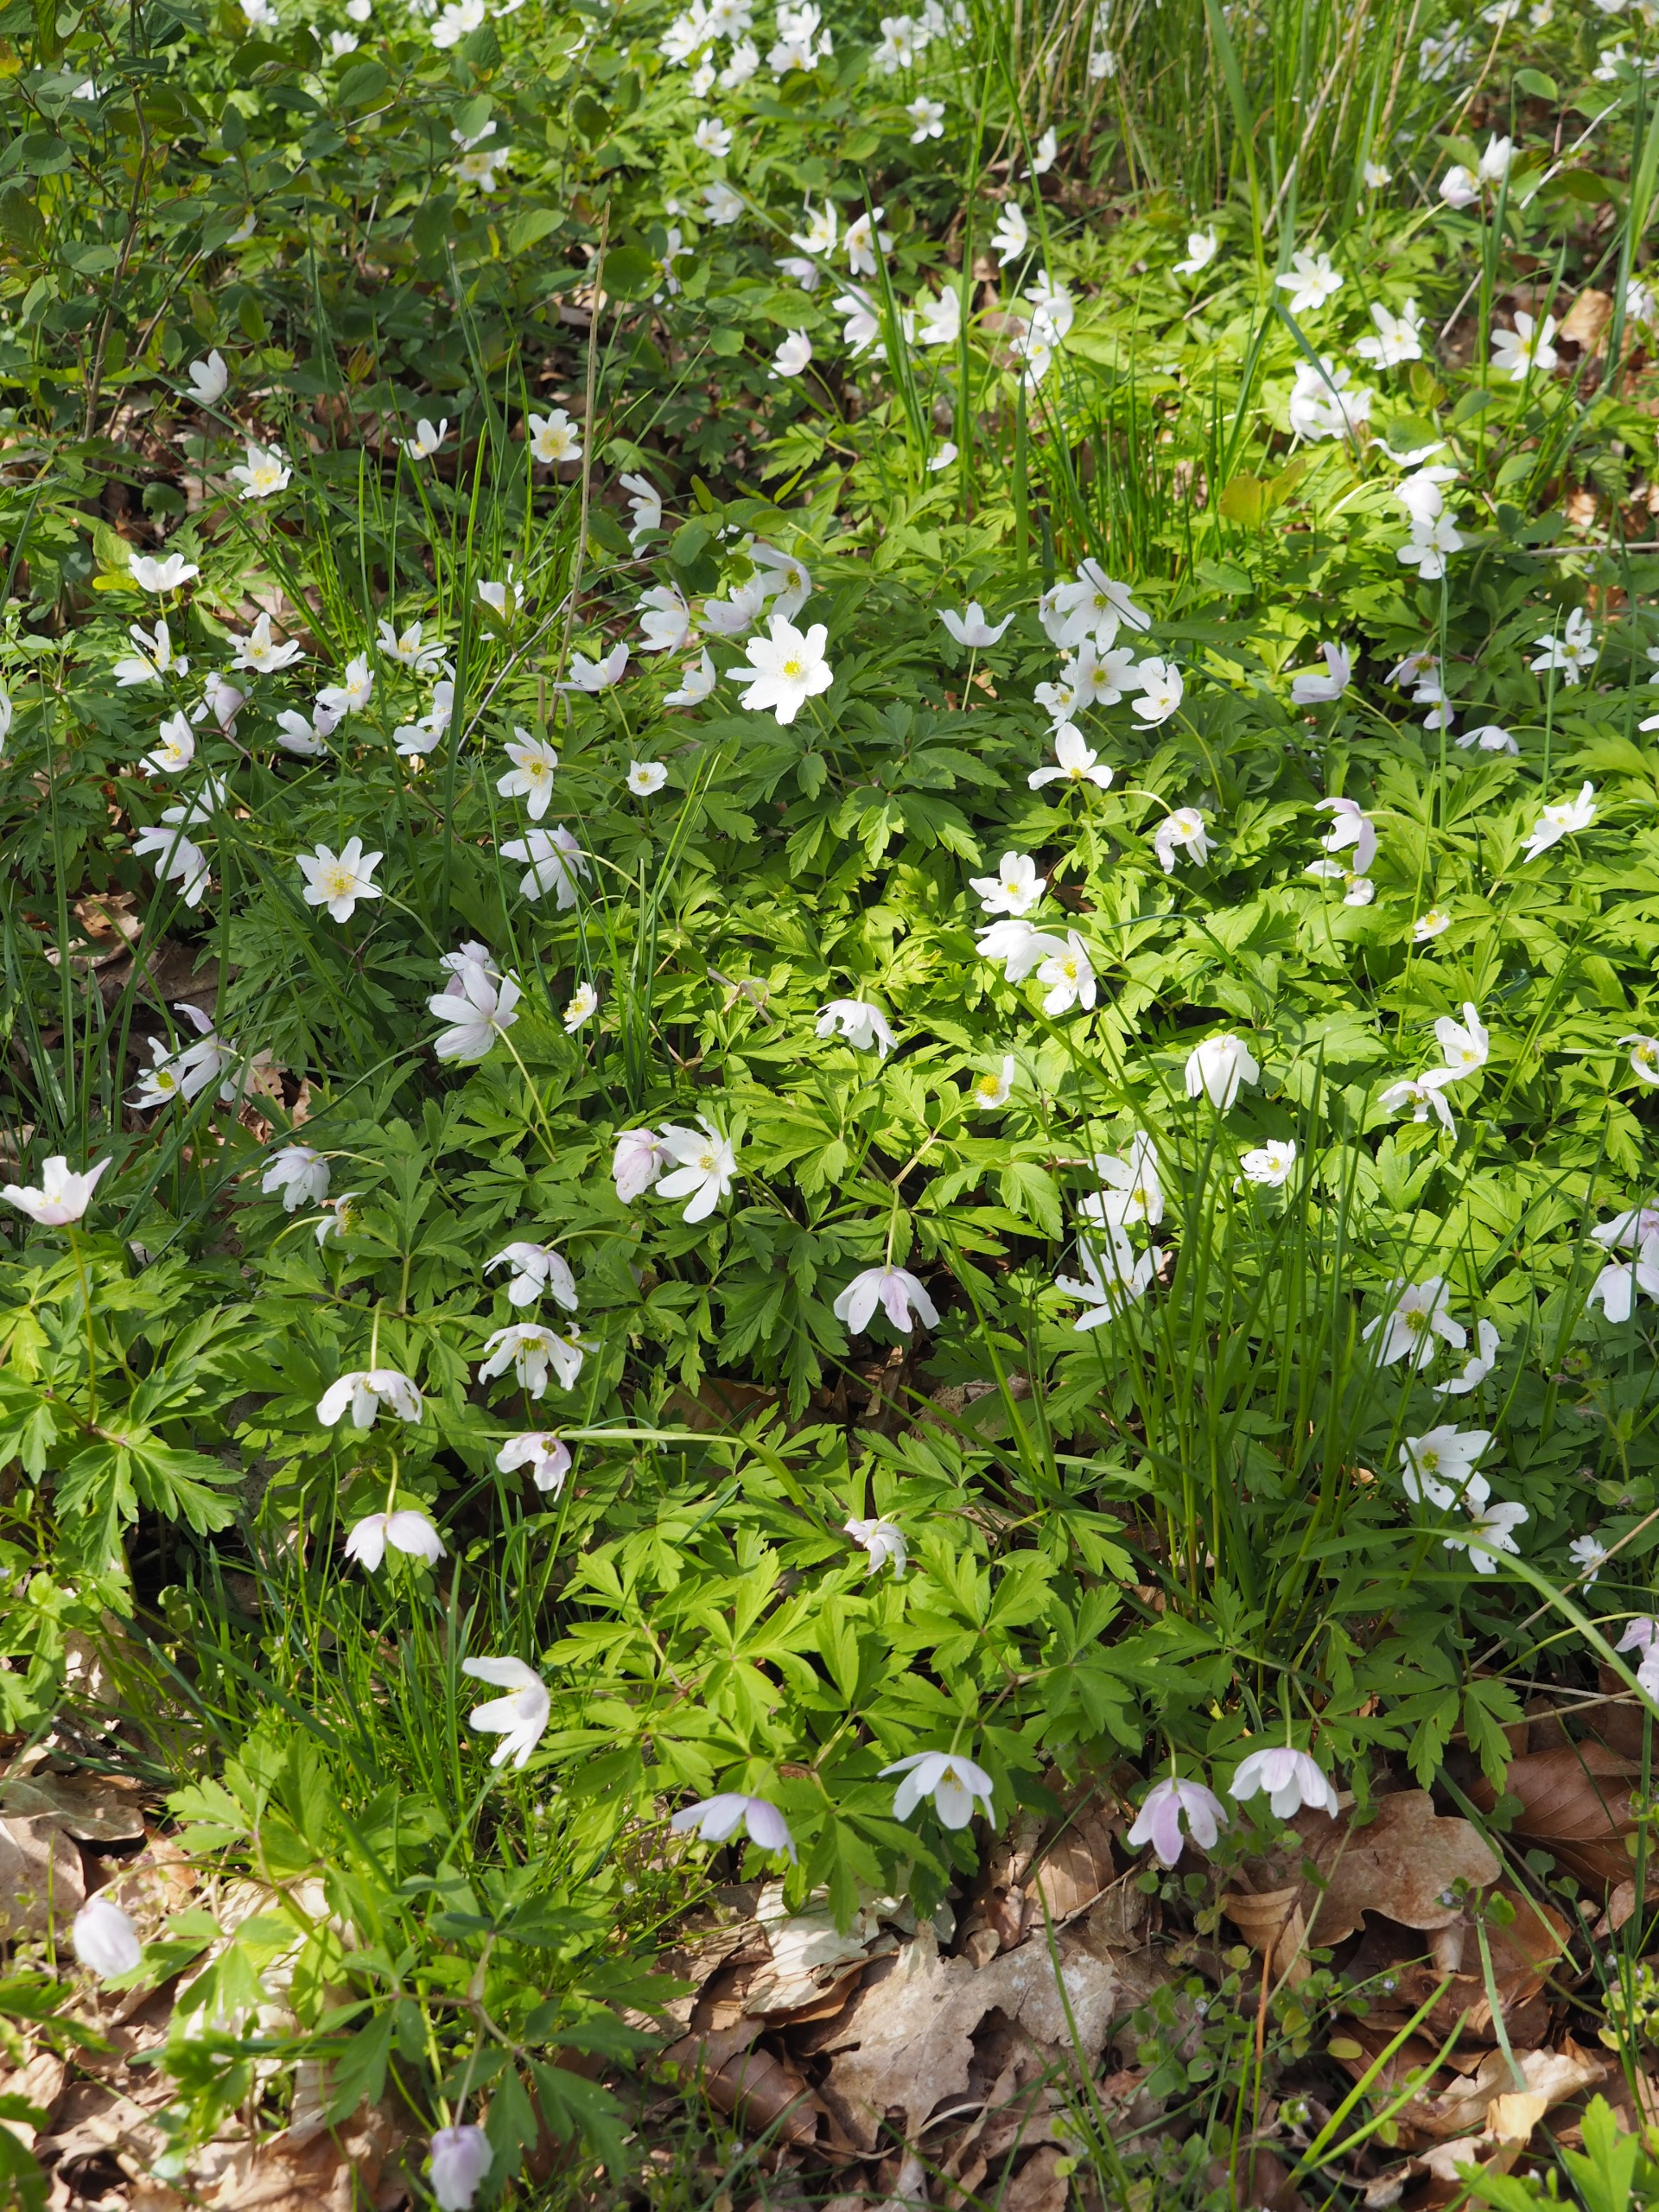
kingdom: Plantae
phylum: Tracheophyta
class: Magnoliopsida
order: Ranunculales
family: Ranunculaceae
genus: Anemone
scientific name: Anemone nemorosa
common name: Hvid anemone
